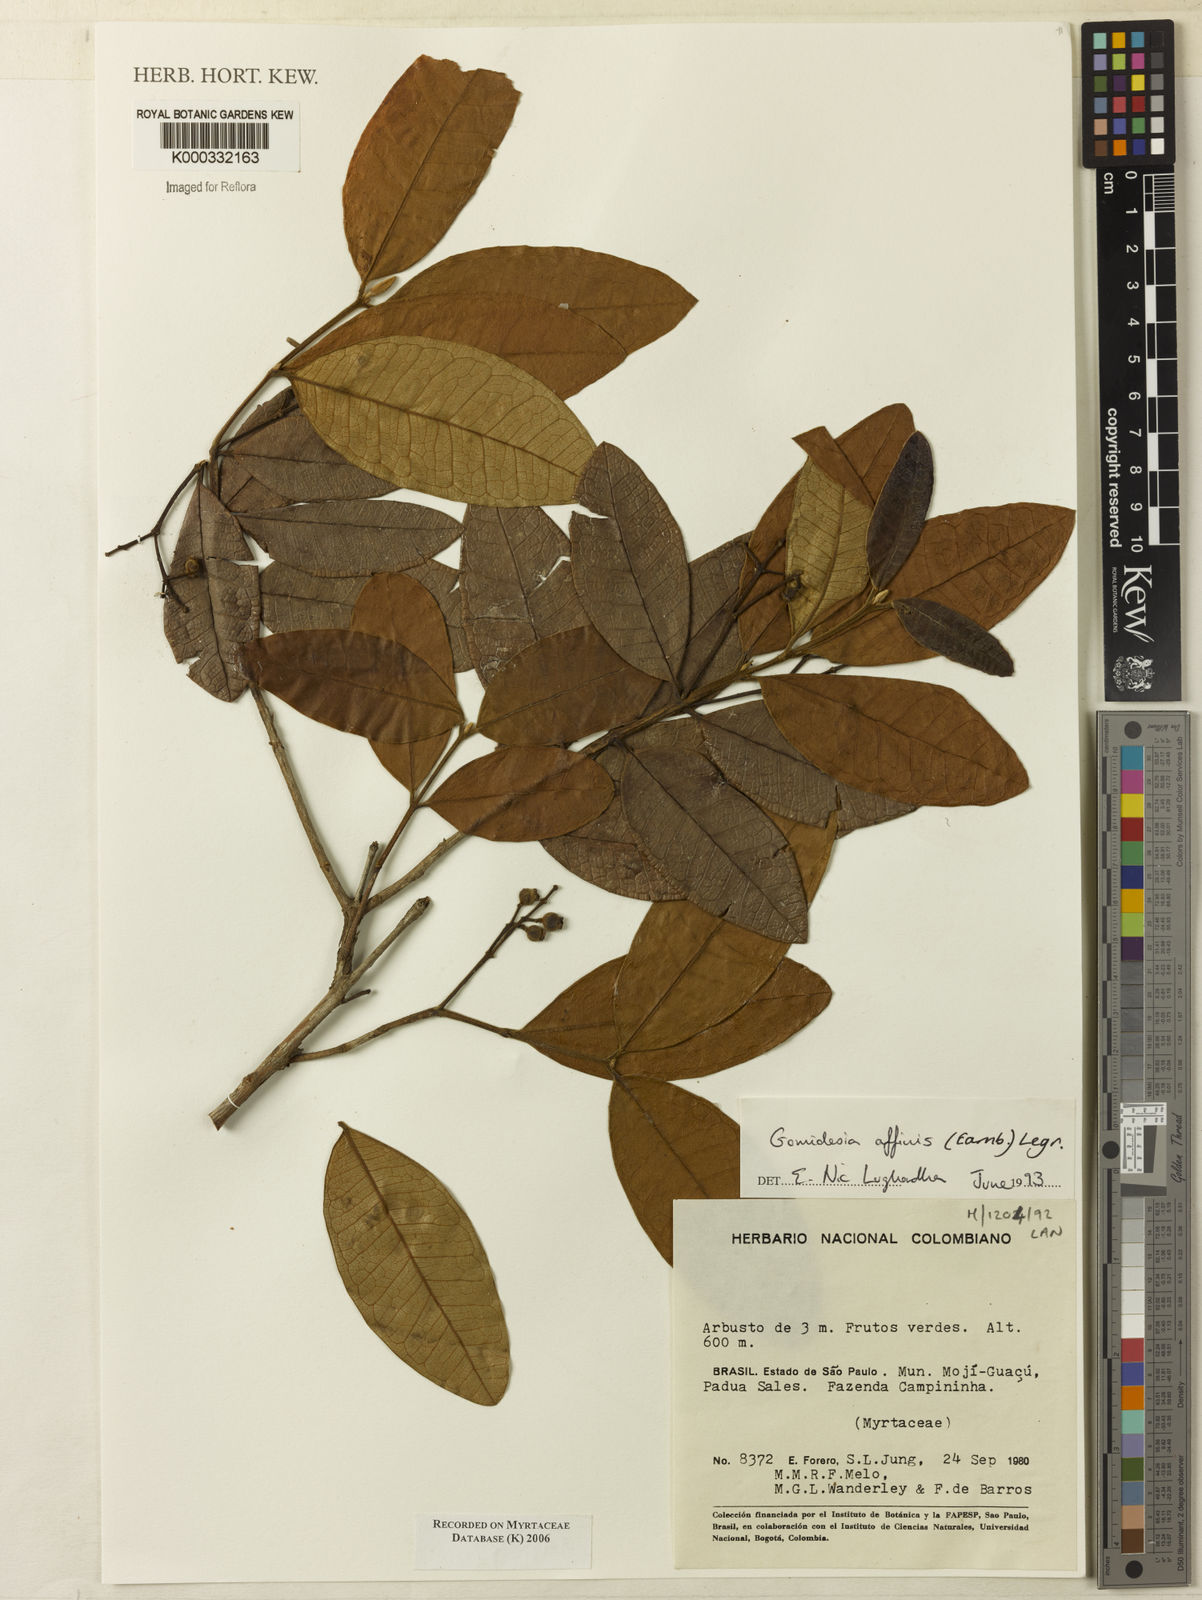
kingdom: Plantae
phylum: Tracheophyta
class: Magnoliopsida
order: Myrtales
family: Myrtaceae
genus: Myrcia
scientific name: Myrcia hebepetala
